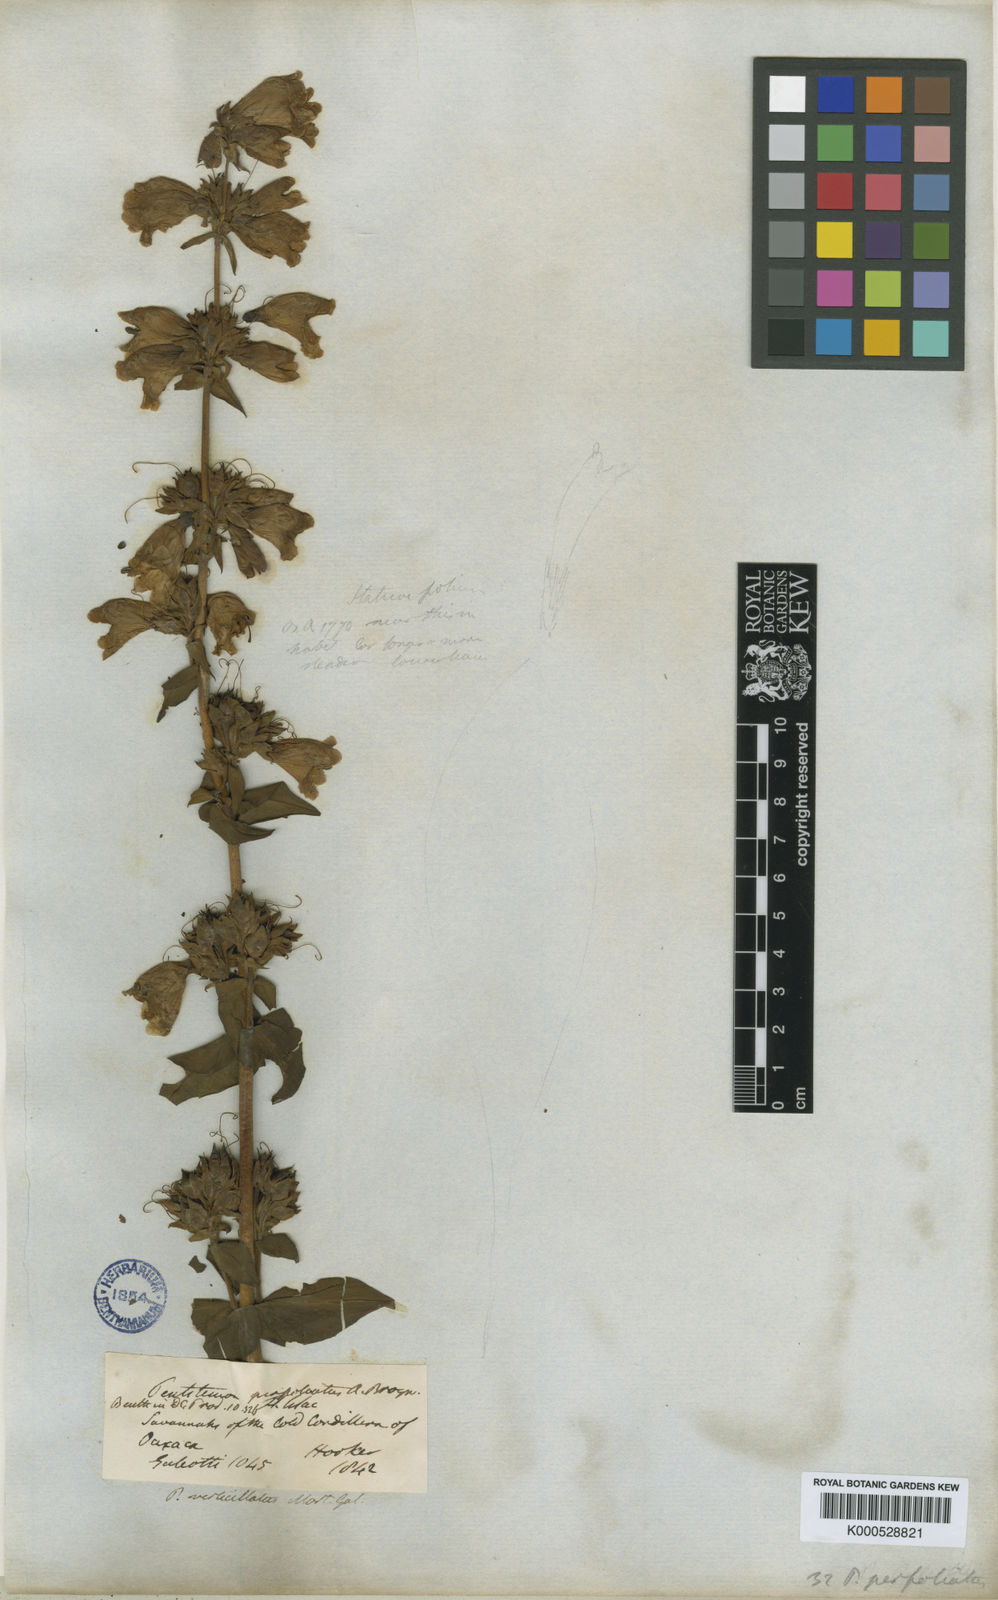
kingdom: Plantae
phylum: Tracheophyta
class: Magnoliopsida
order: Lamiales
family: Plantaginaceae
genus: Penstemon
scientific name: Penstemon perfoliatus
